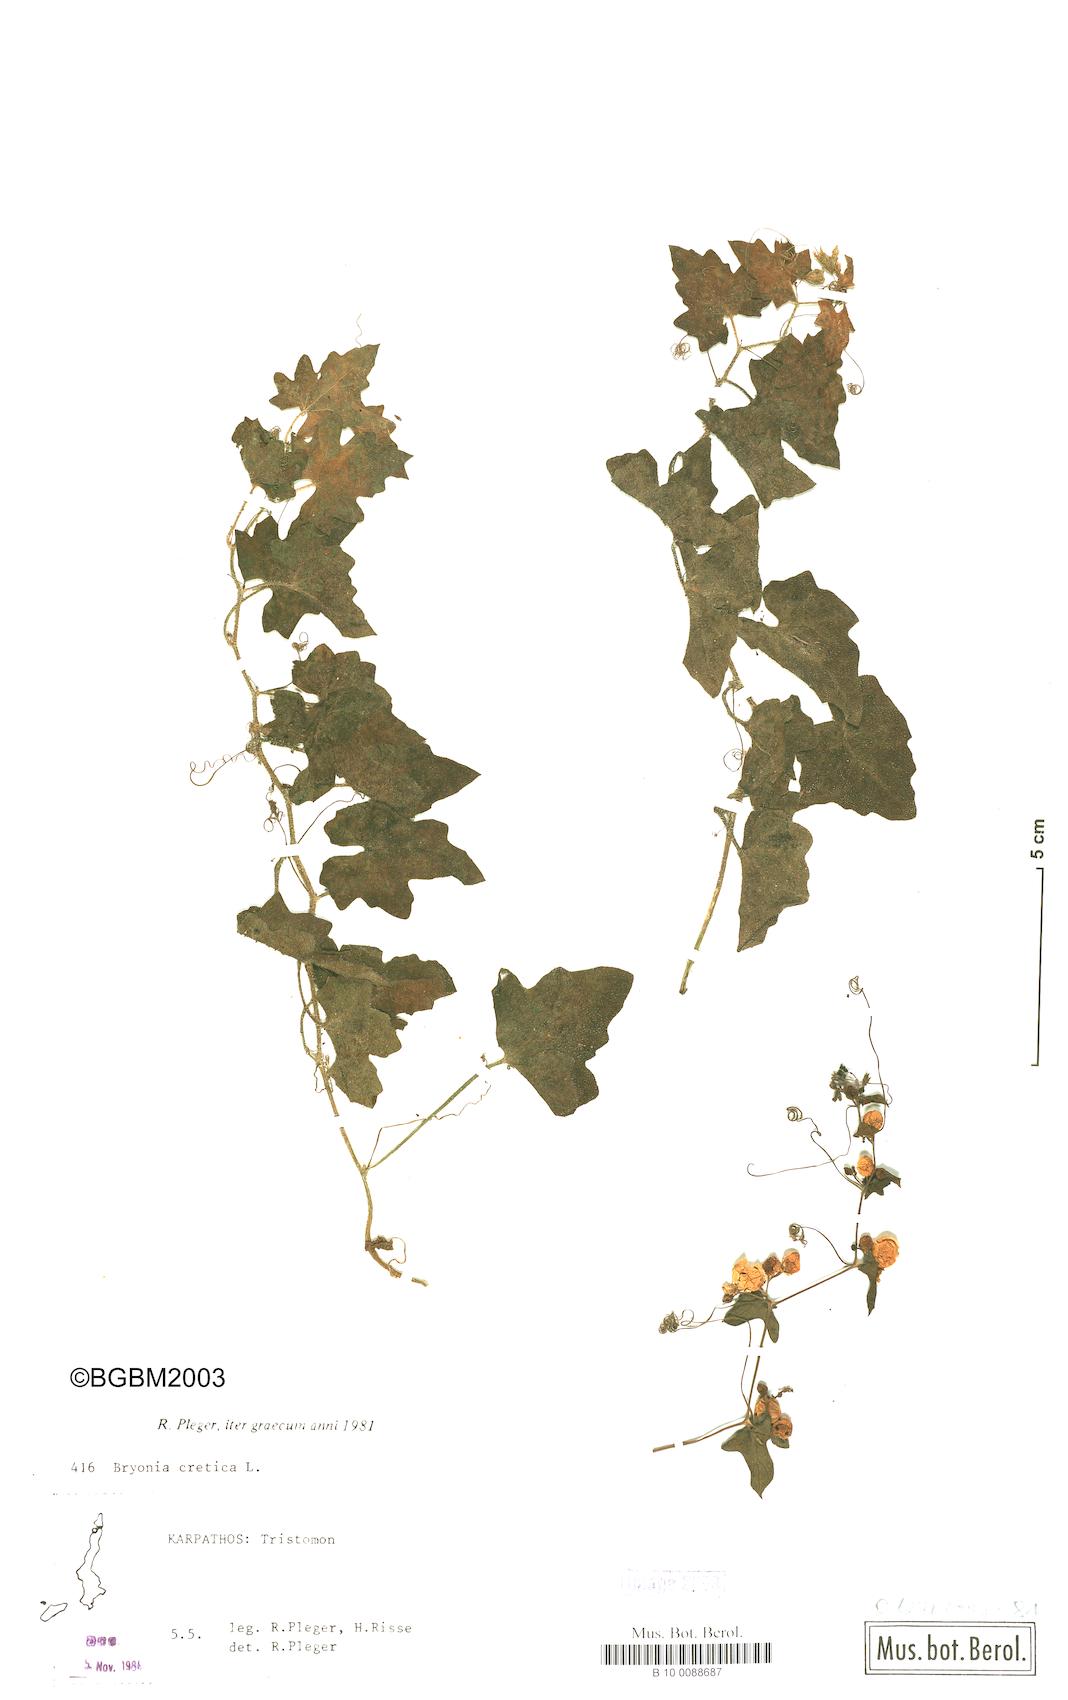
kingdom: Plantae
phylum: Tracheophyta
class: Magnoliopsida
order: Cucurbitales
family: Cucurbitaceae
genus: Bryonia
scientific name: Bryonia cretica
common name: Cretan bryony
